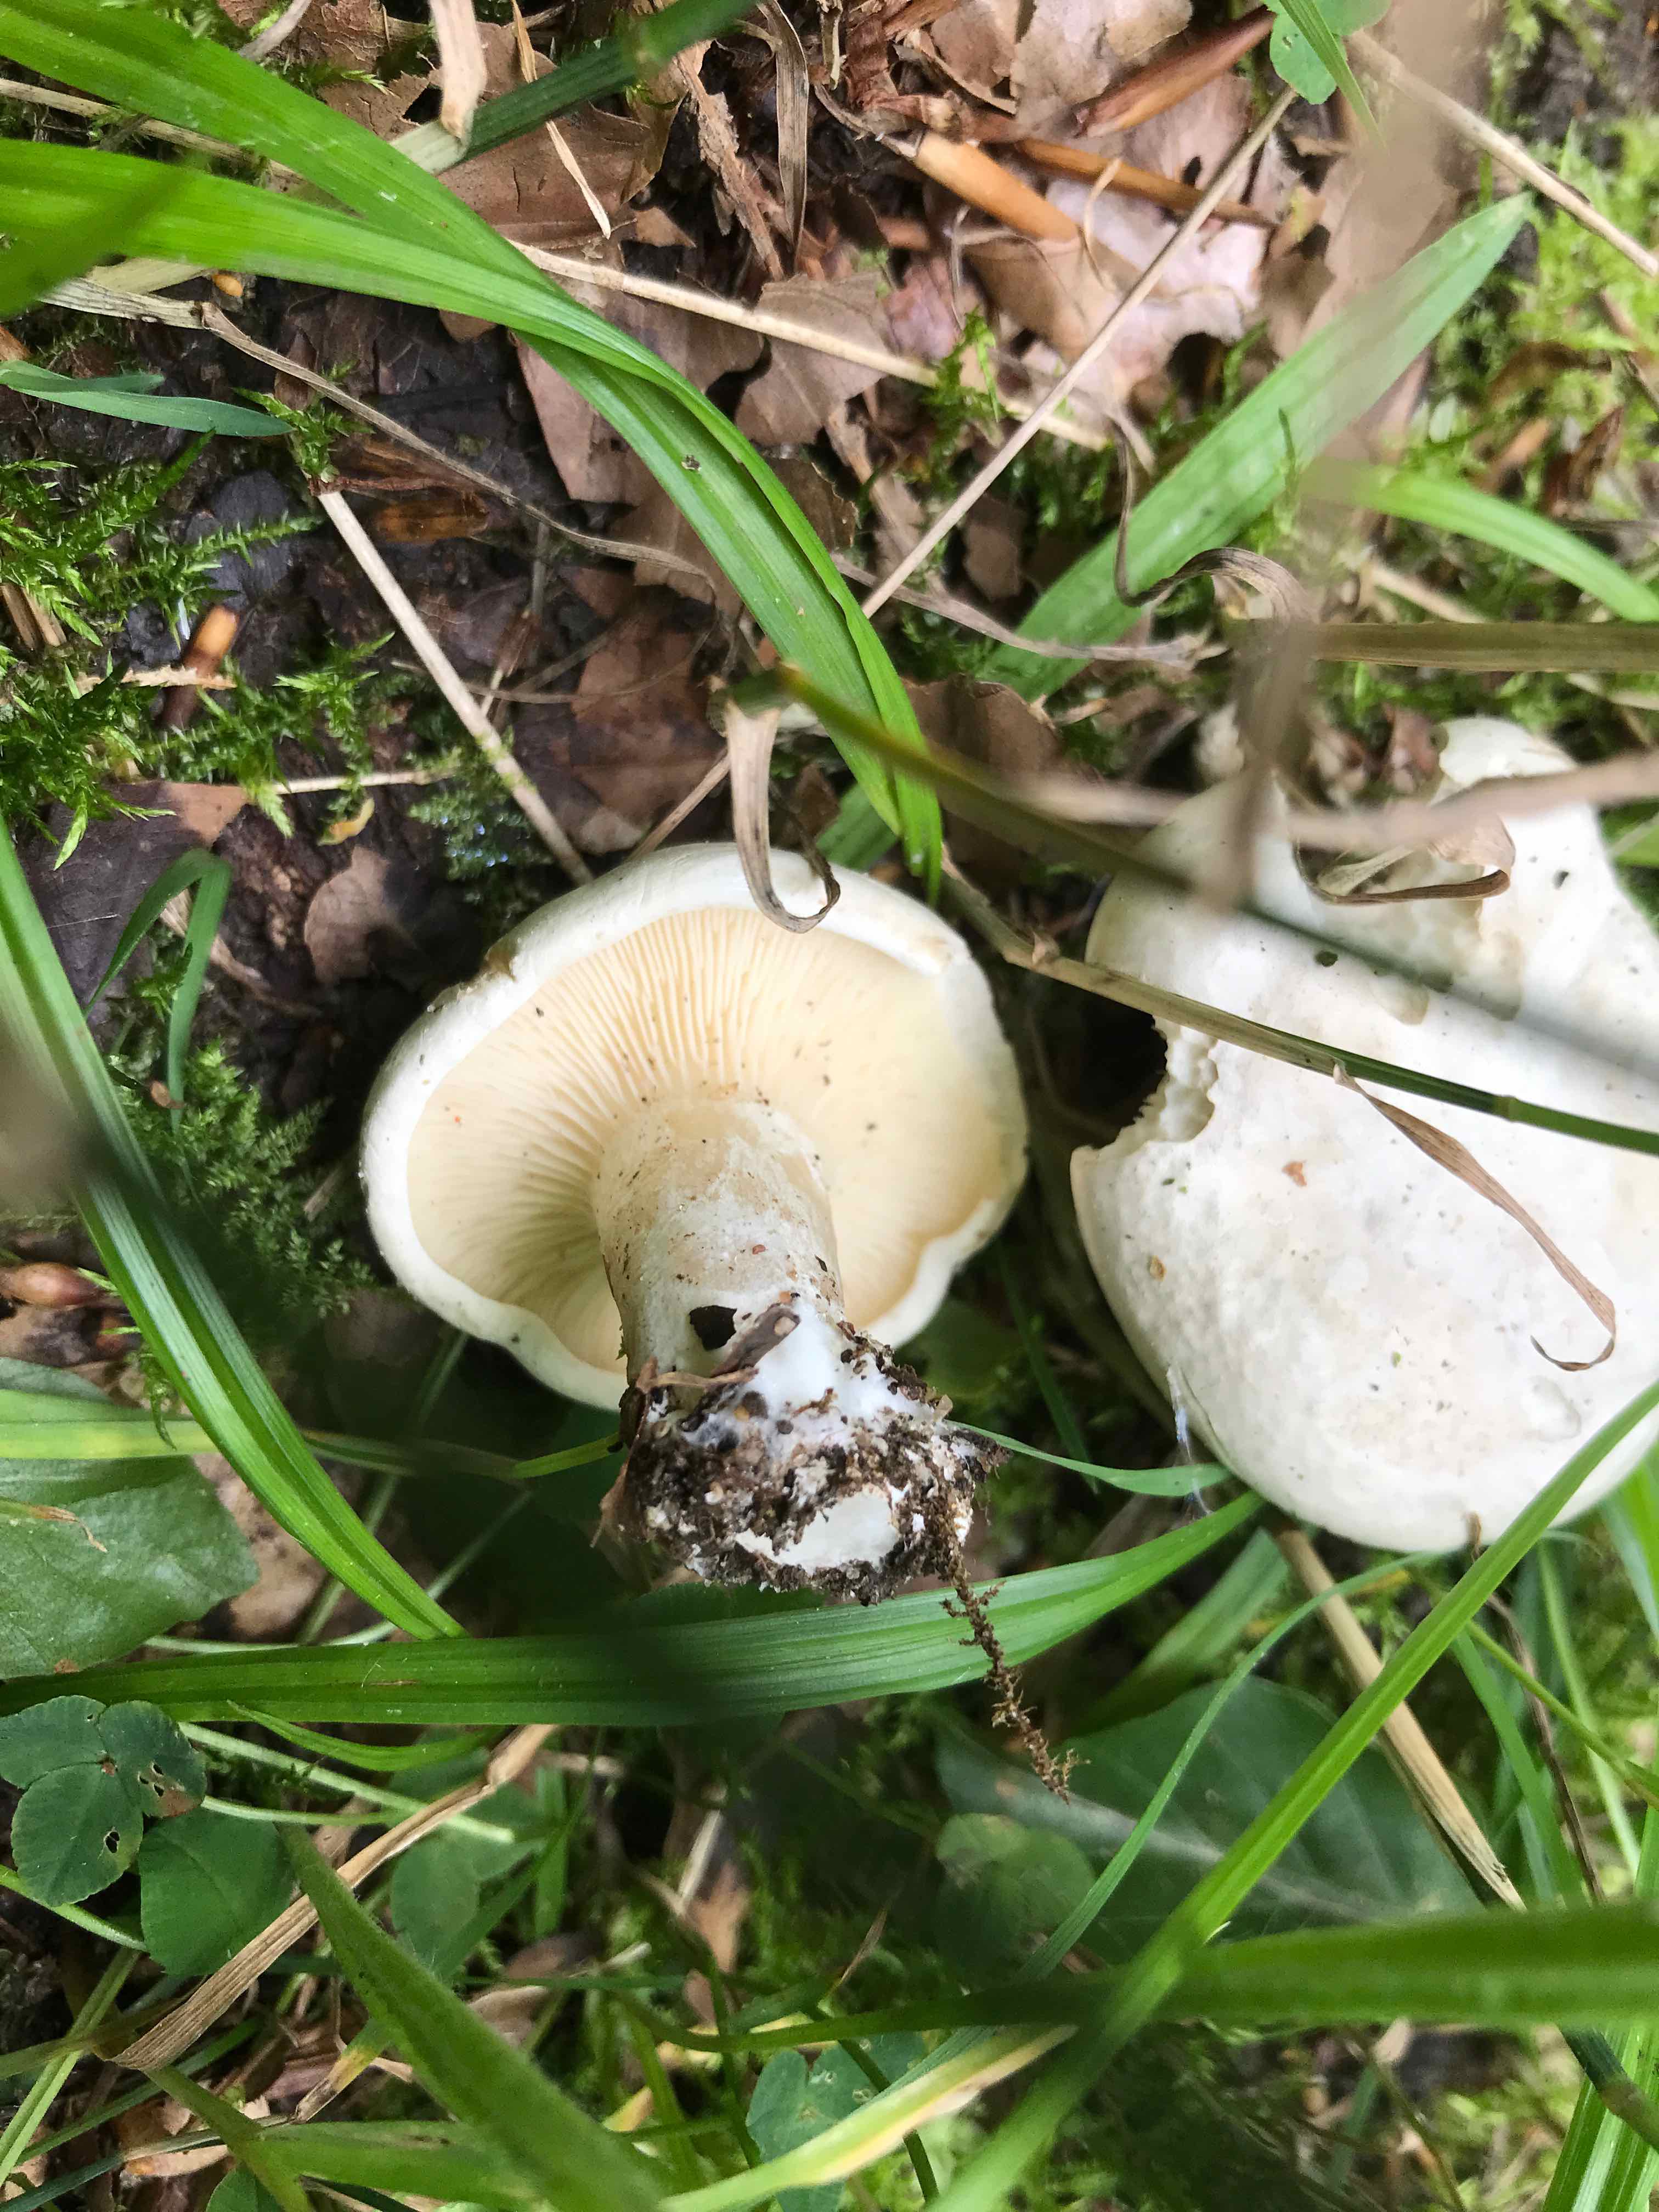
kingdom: Fungi
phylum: Basidiomycota
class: Agaricomycetes
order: Agaricales
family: Entolomataceae
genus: Clitopilus
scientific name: Clitopilus prunulus
